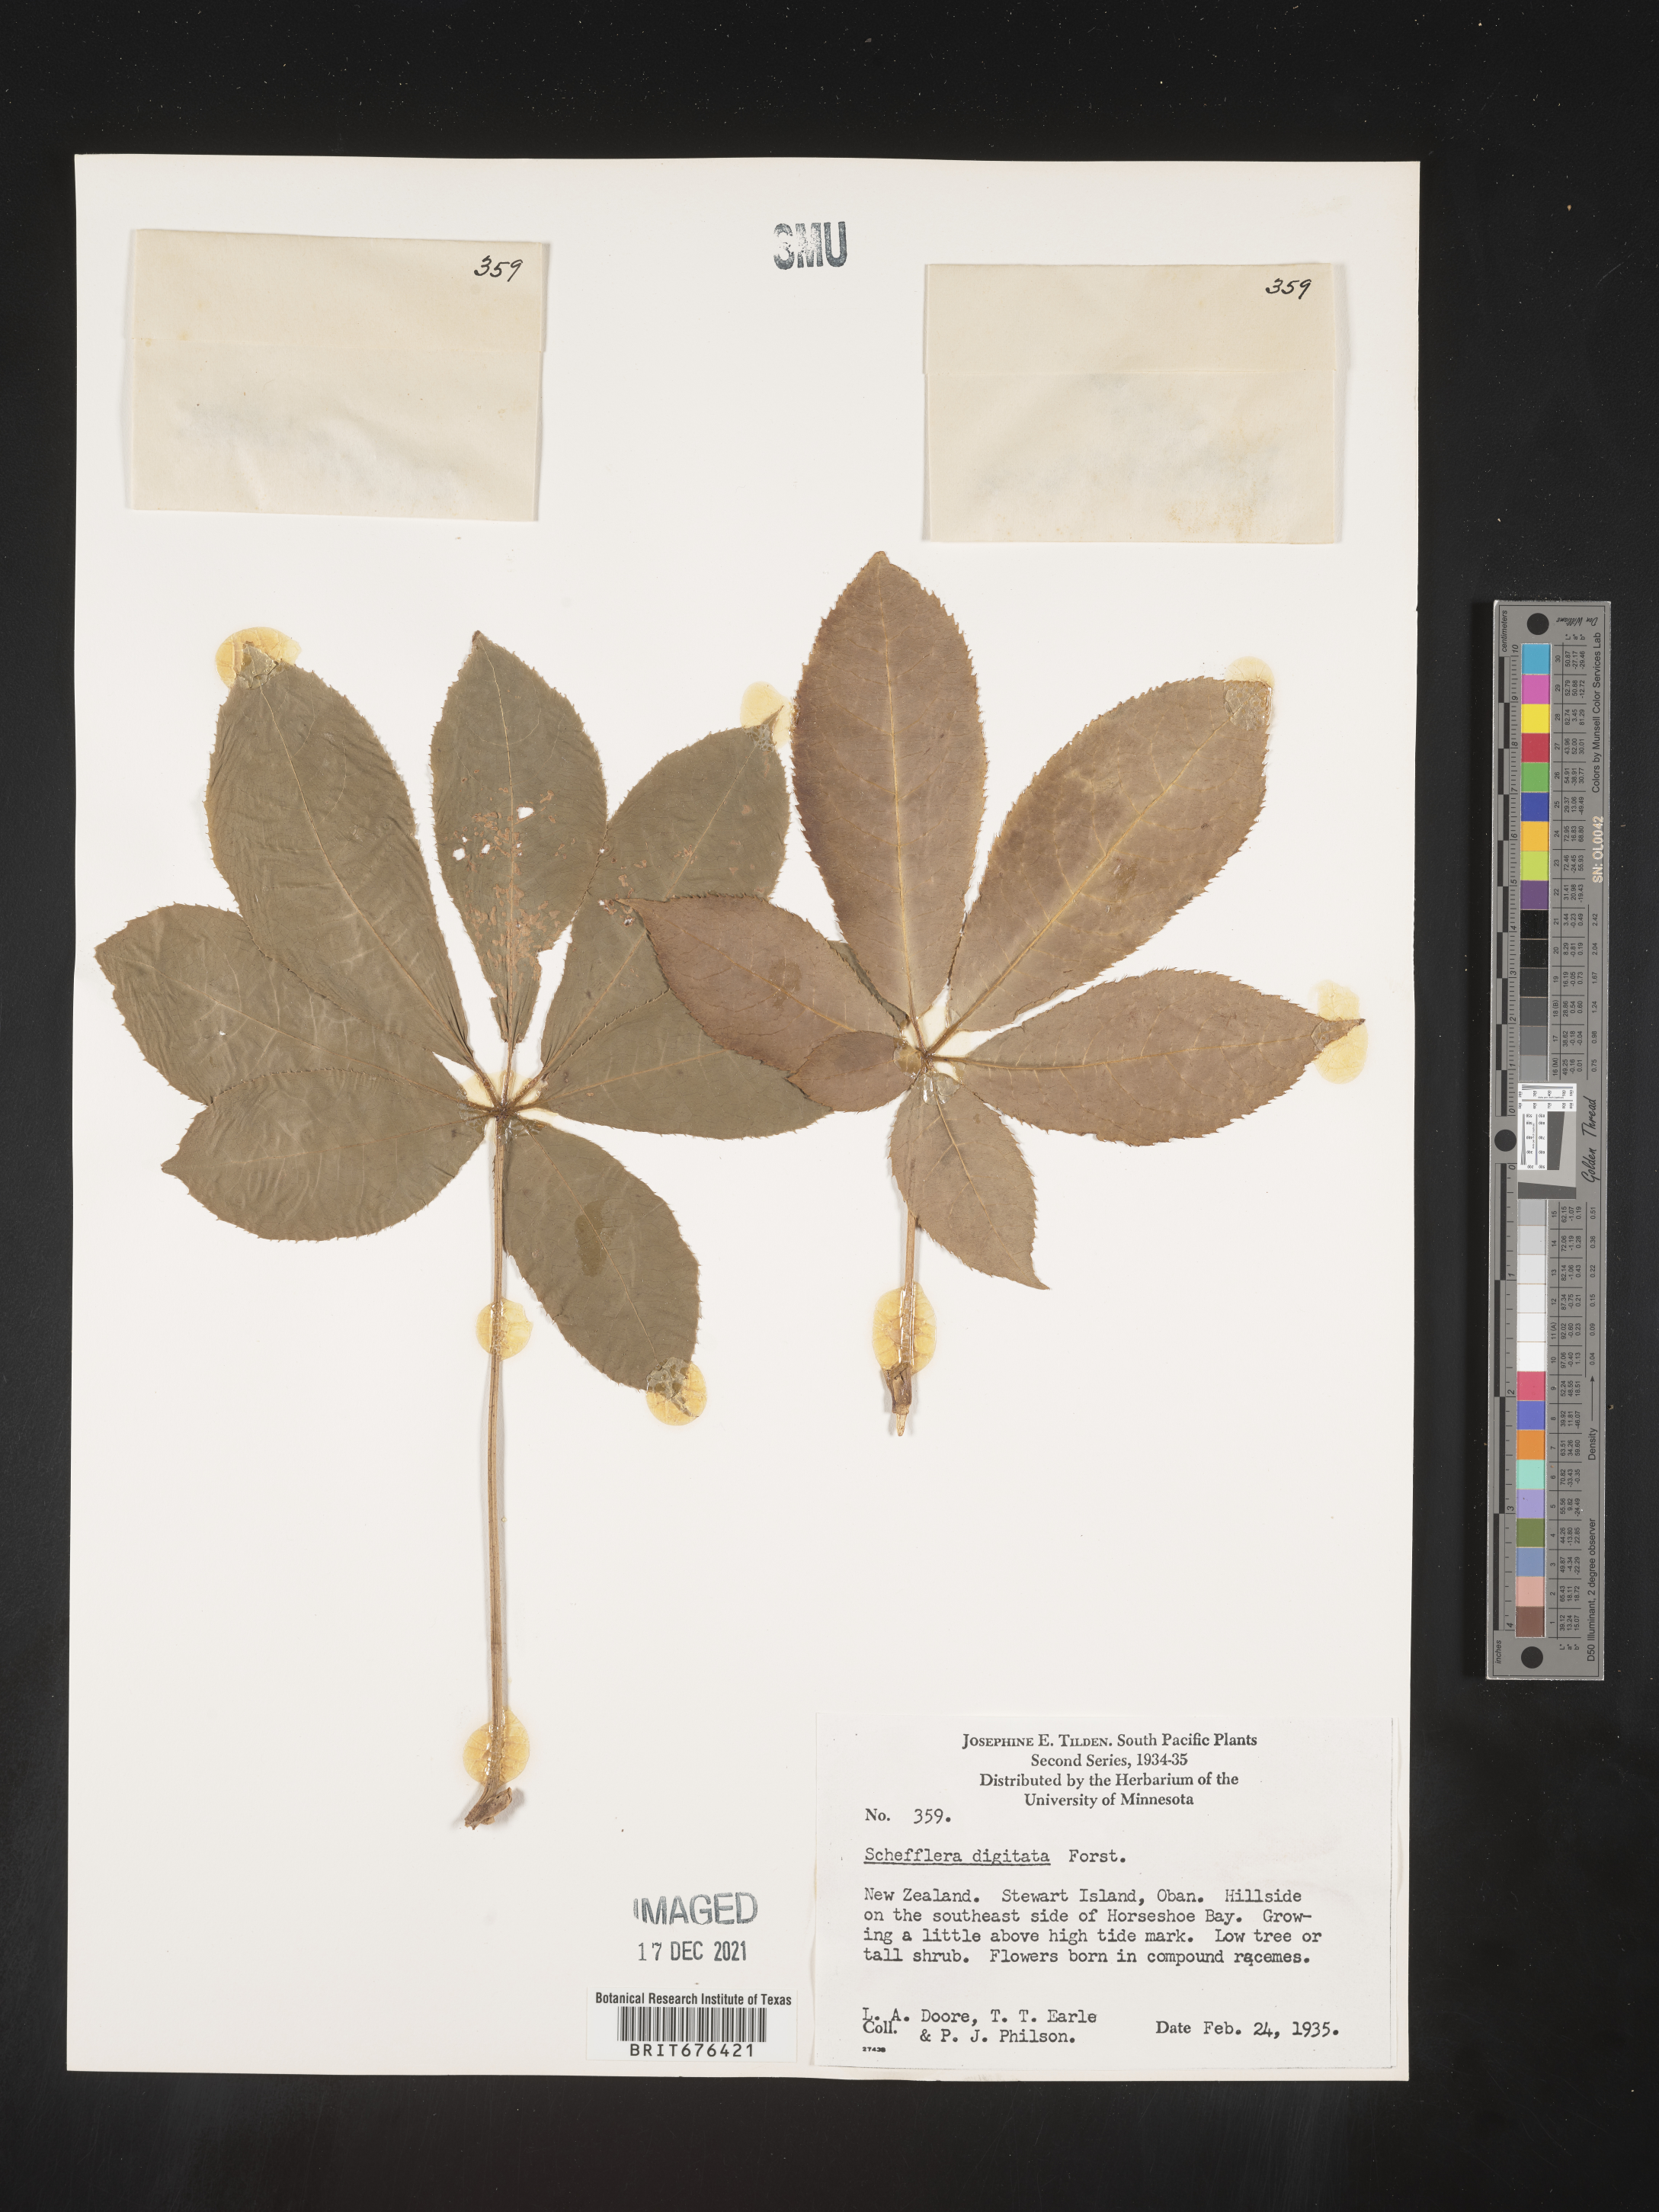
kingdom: Plantae
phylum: Tracheophyta
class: Magnoliopsida
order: Apiales
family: Araliaceae
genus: Schefflera
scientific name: Schefflera digitata
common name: Pate
